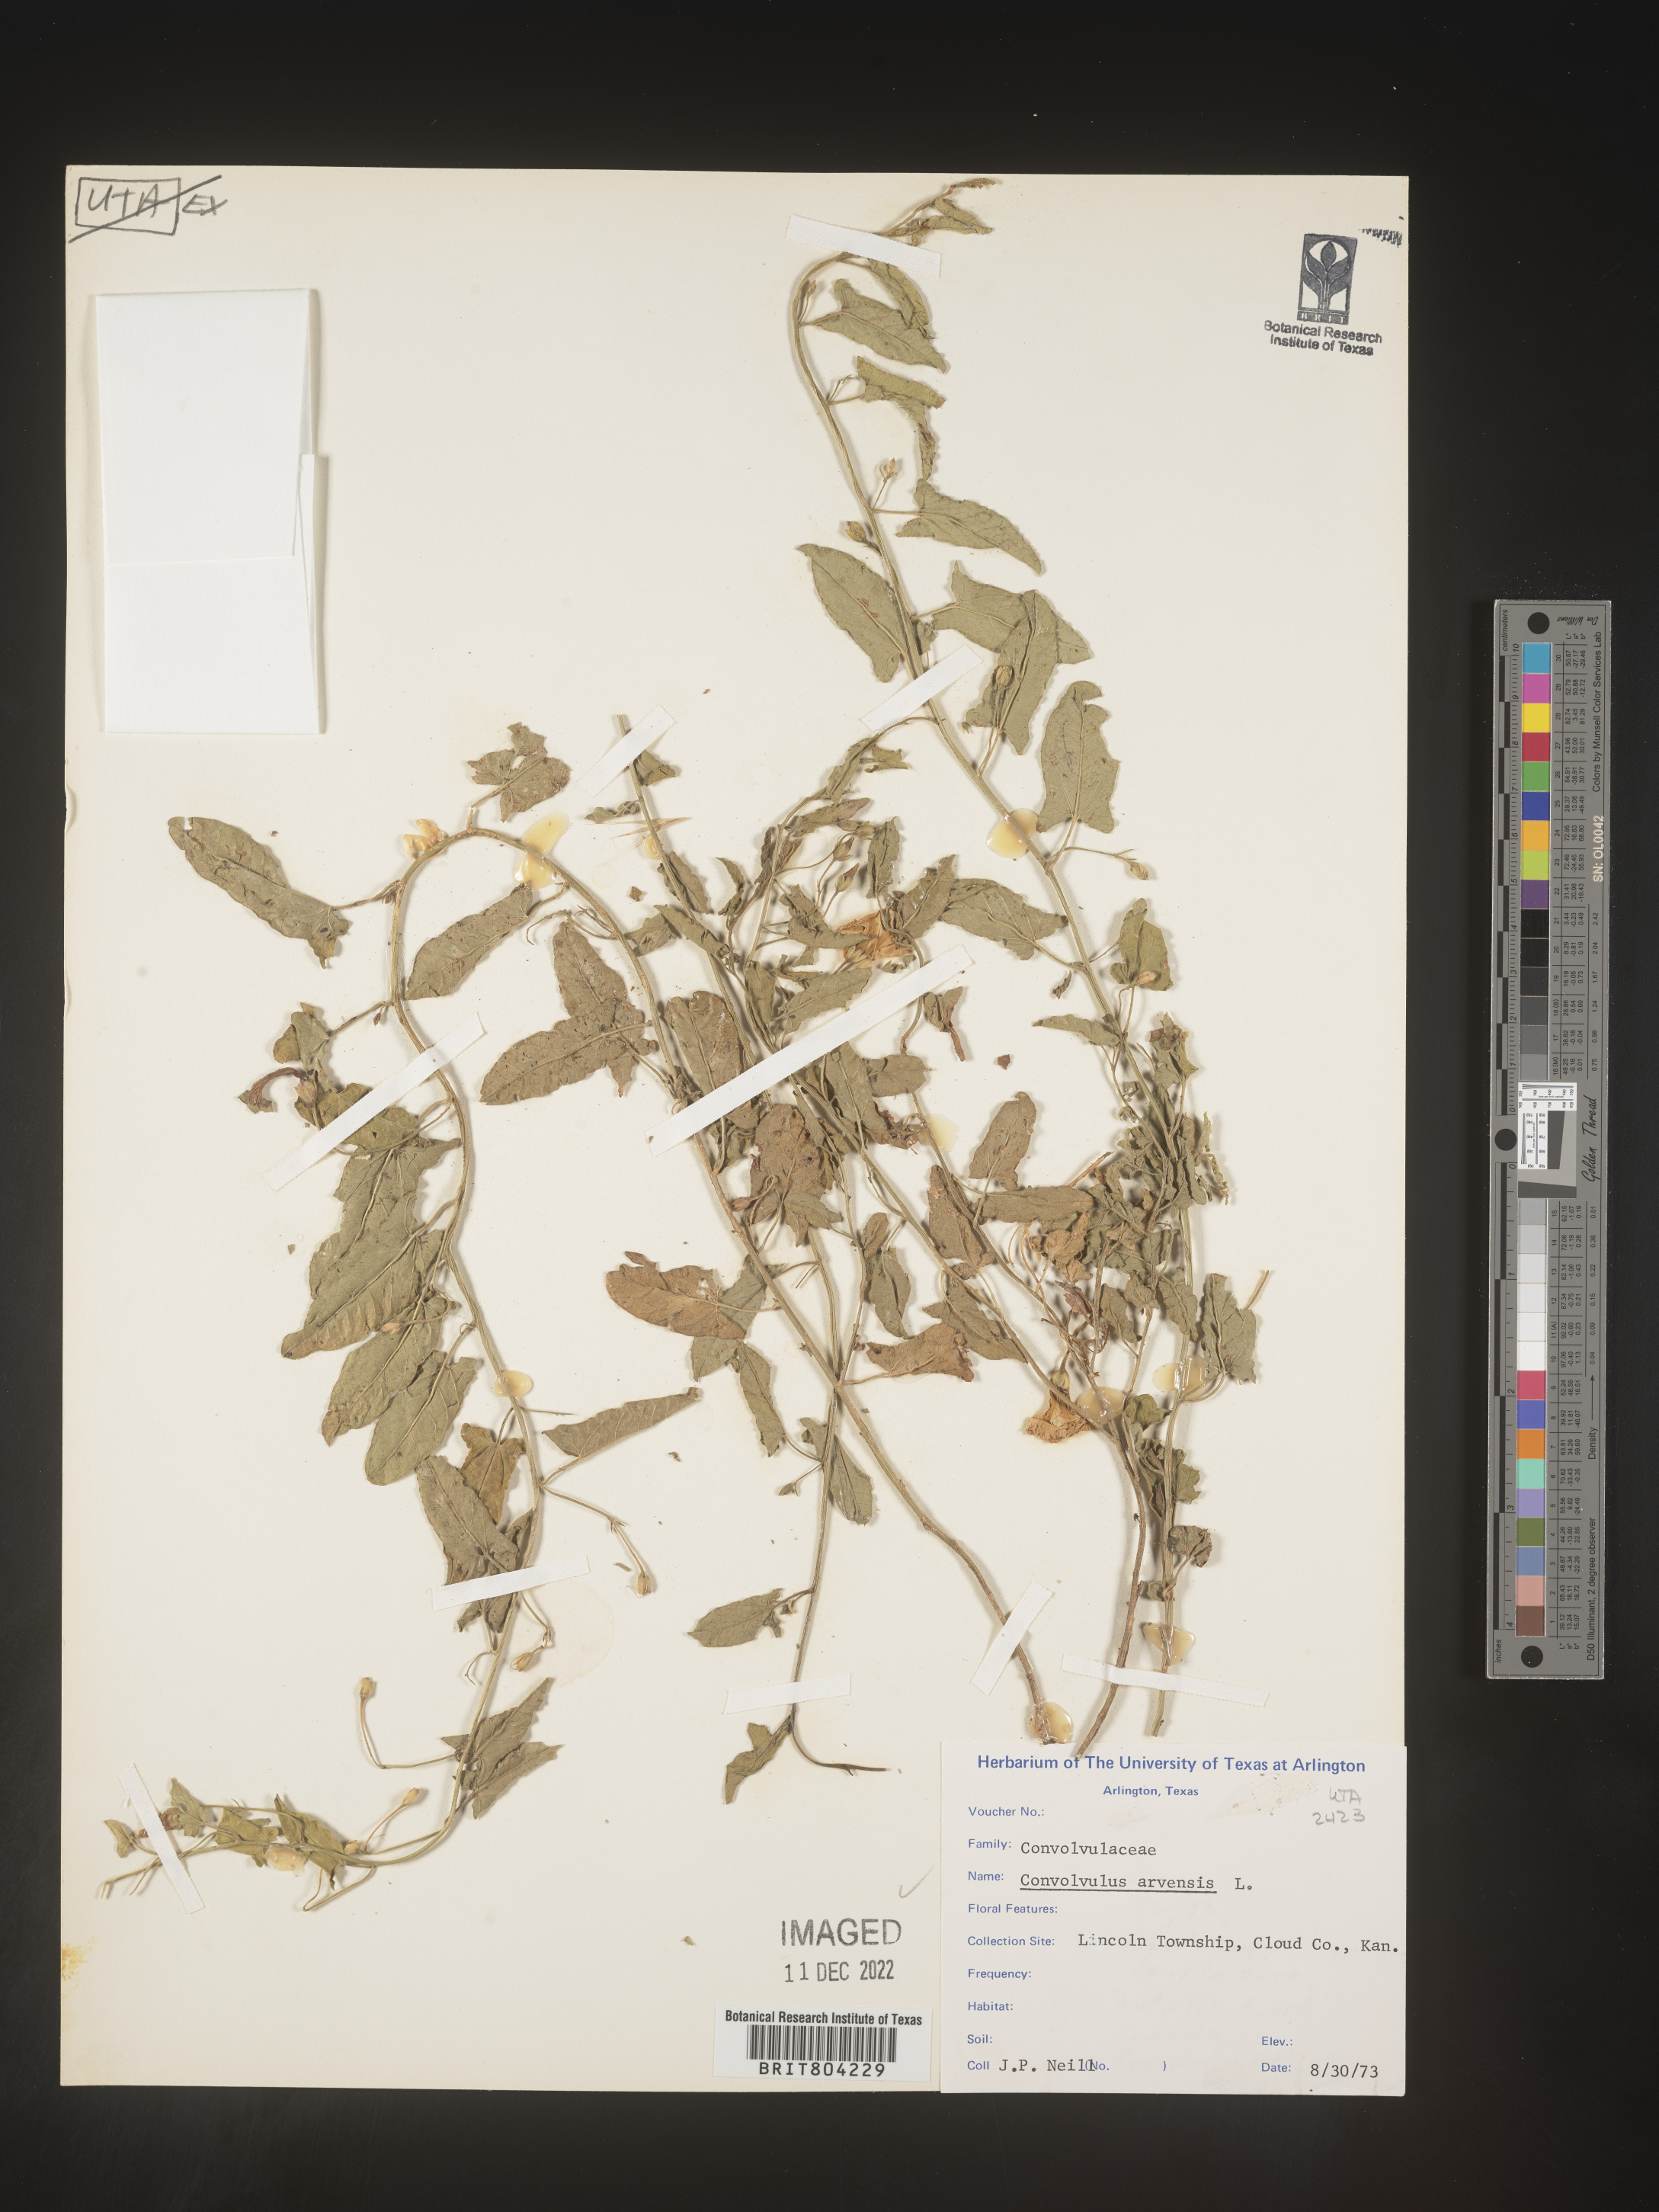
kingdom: Plantae
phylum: Tracheophyta
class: Magnoliopsida
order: Solanales
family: Convolvulaceae
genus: Convolvulus
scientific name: Convolvulus arvensis
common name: Field bindweed
